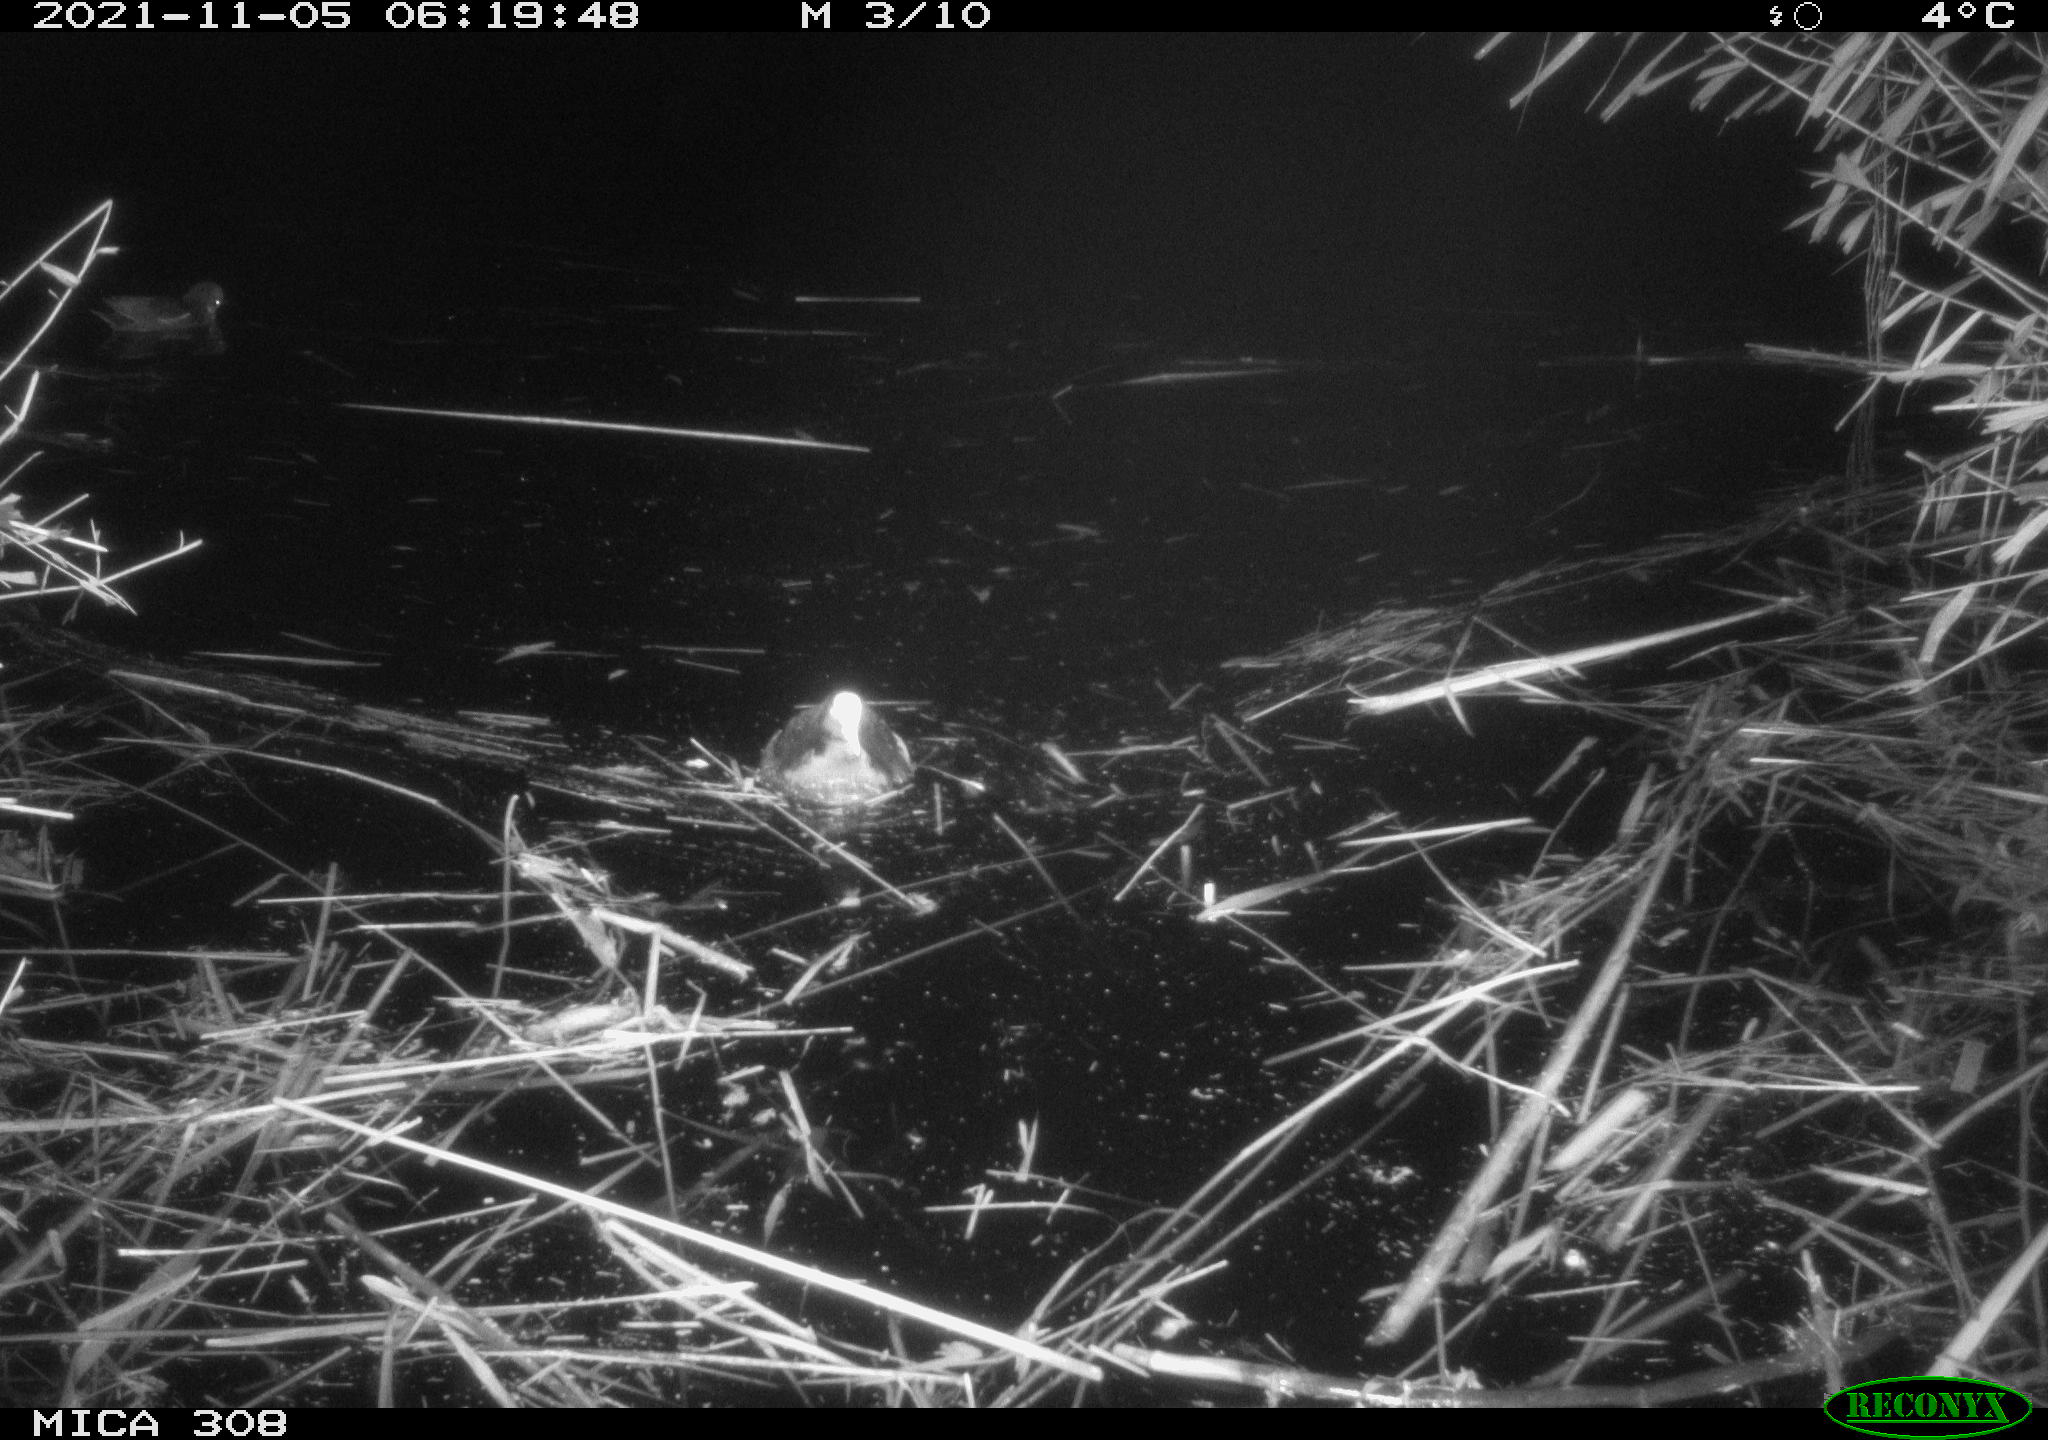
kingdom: Animalia
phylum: Chordata
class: Aves
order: Gruiformes
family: Rallidae
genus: Fulica
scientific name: Fulica atra
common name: Eurasian coot
